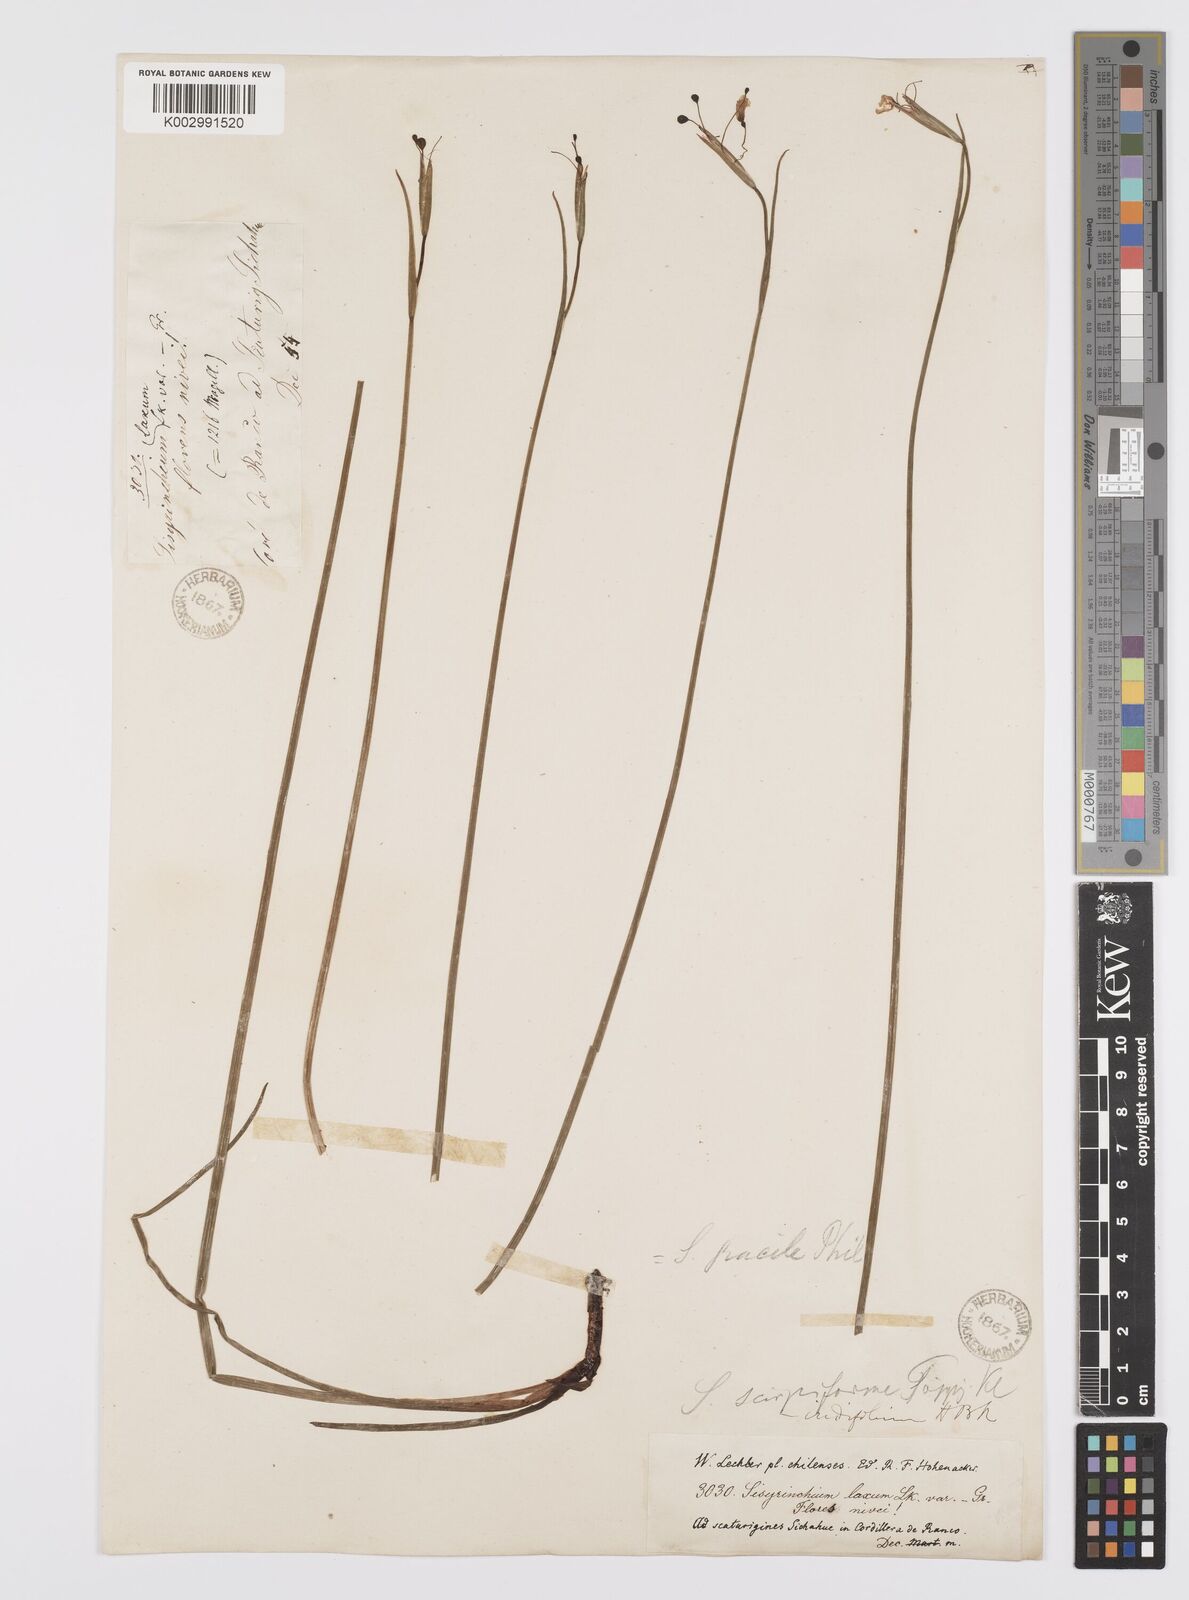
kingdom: Plantae
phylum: Tracheophyta
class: Liliopsida
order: Asparagales
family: Iridaceae
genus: Olsynium
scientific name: Olsynium junceum
